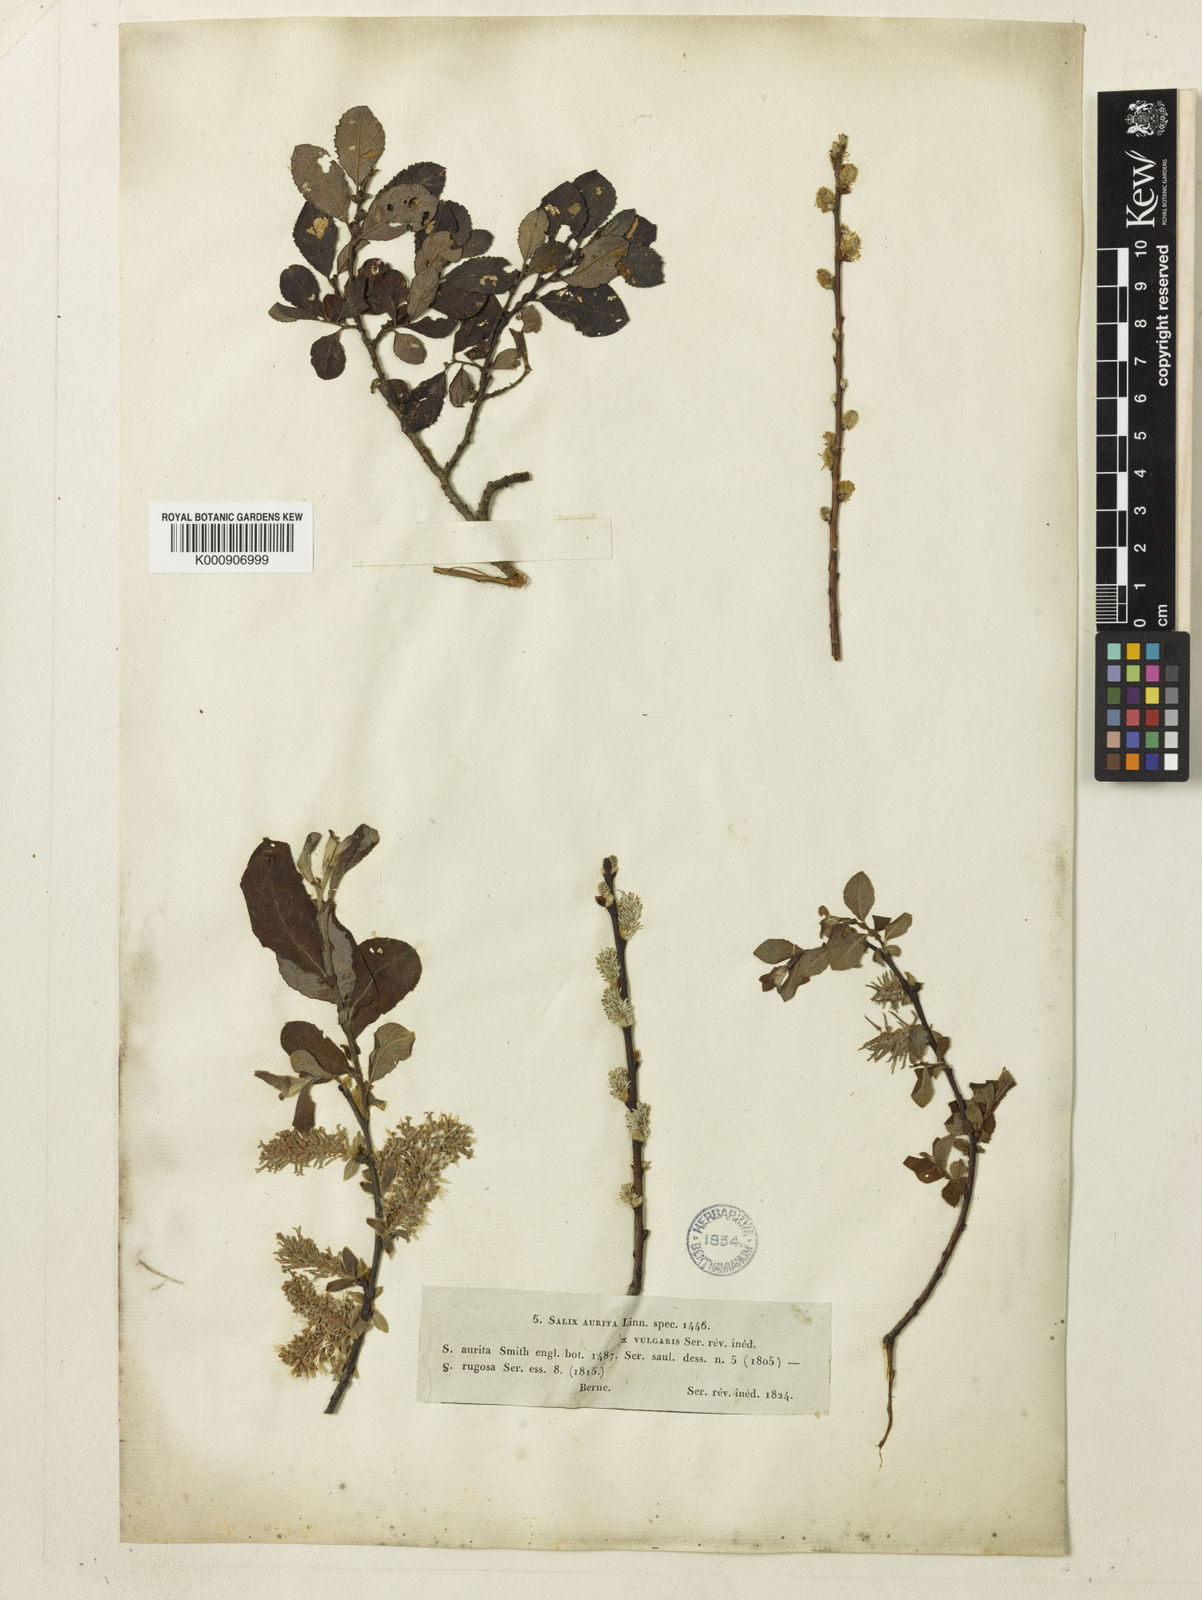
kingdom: Plantae
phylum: Tracheophyta
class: Magnoliopsida
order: Malpighiales
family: Salicaceae
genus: Salix
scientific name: Salix aurita
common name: Eared willow
